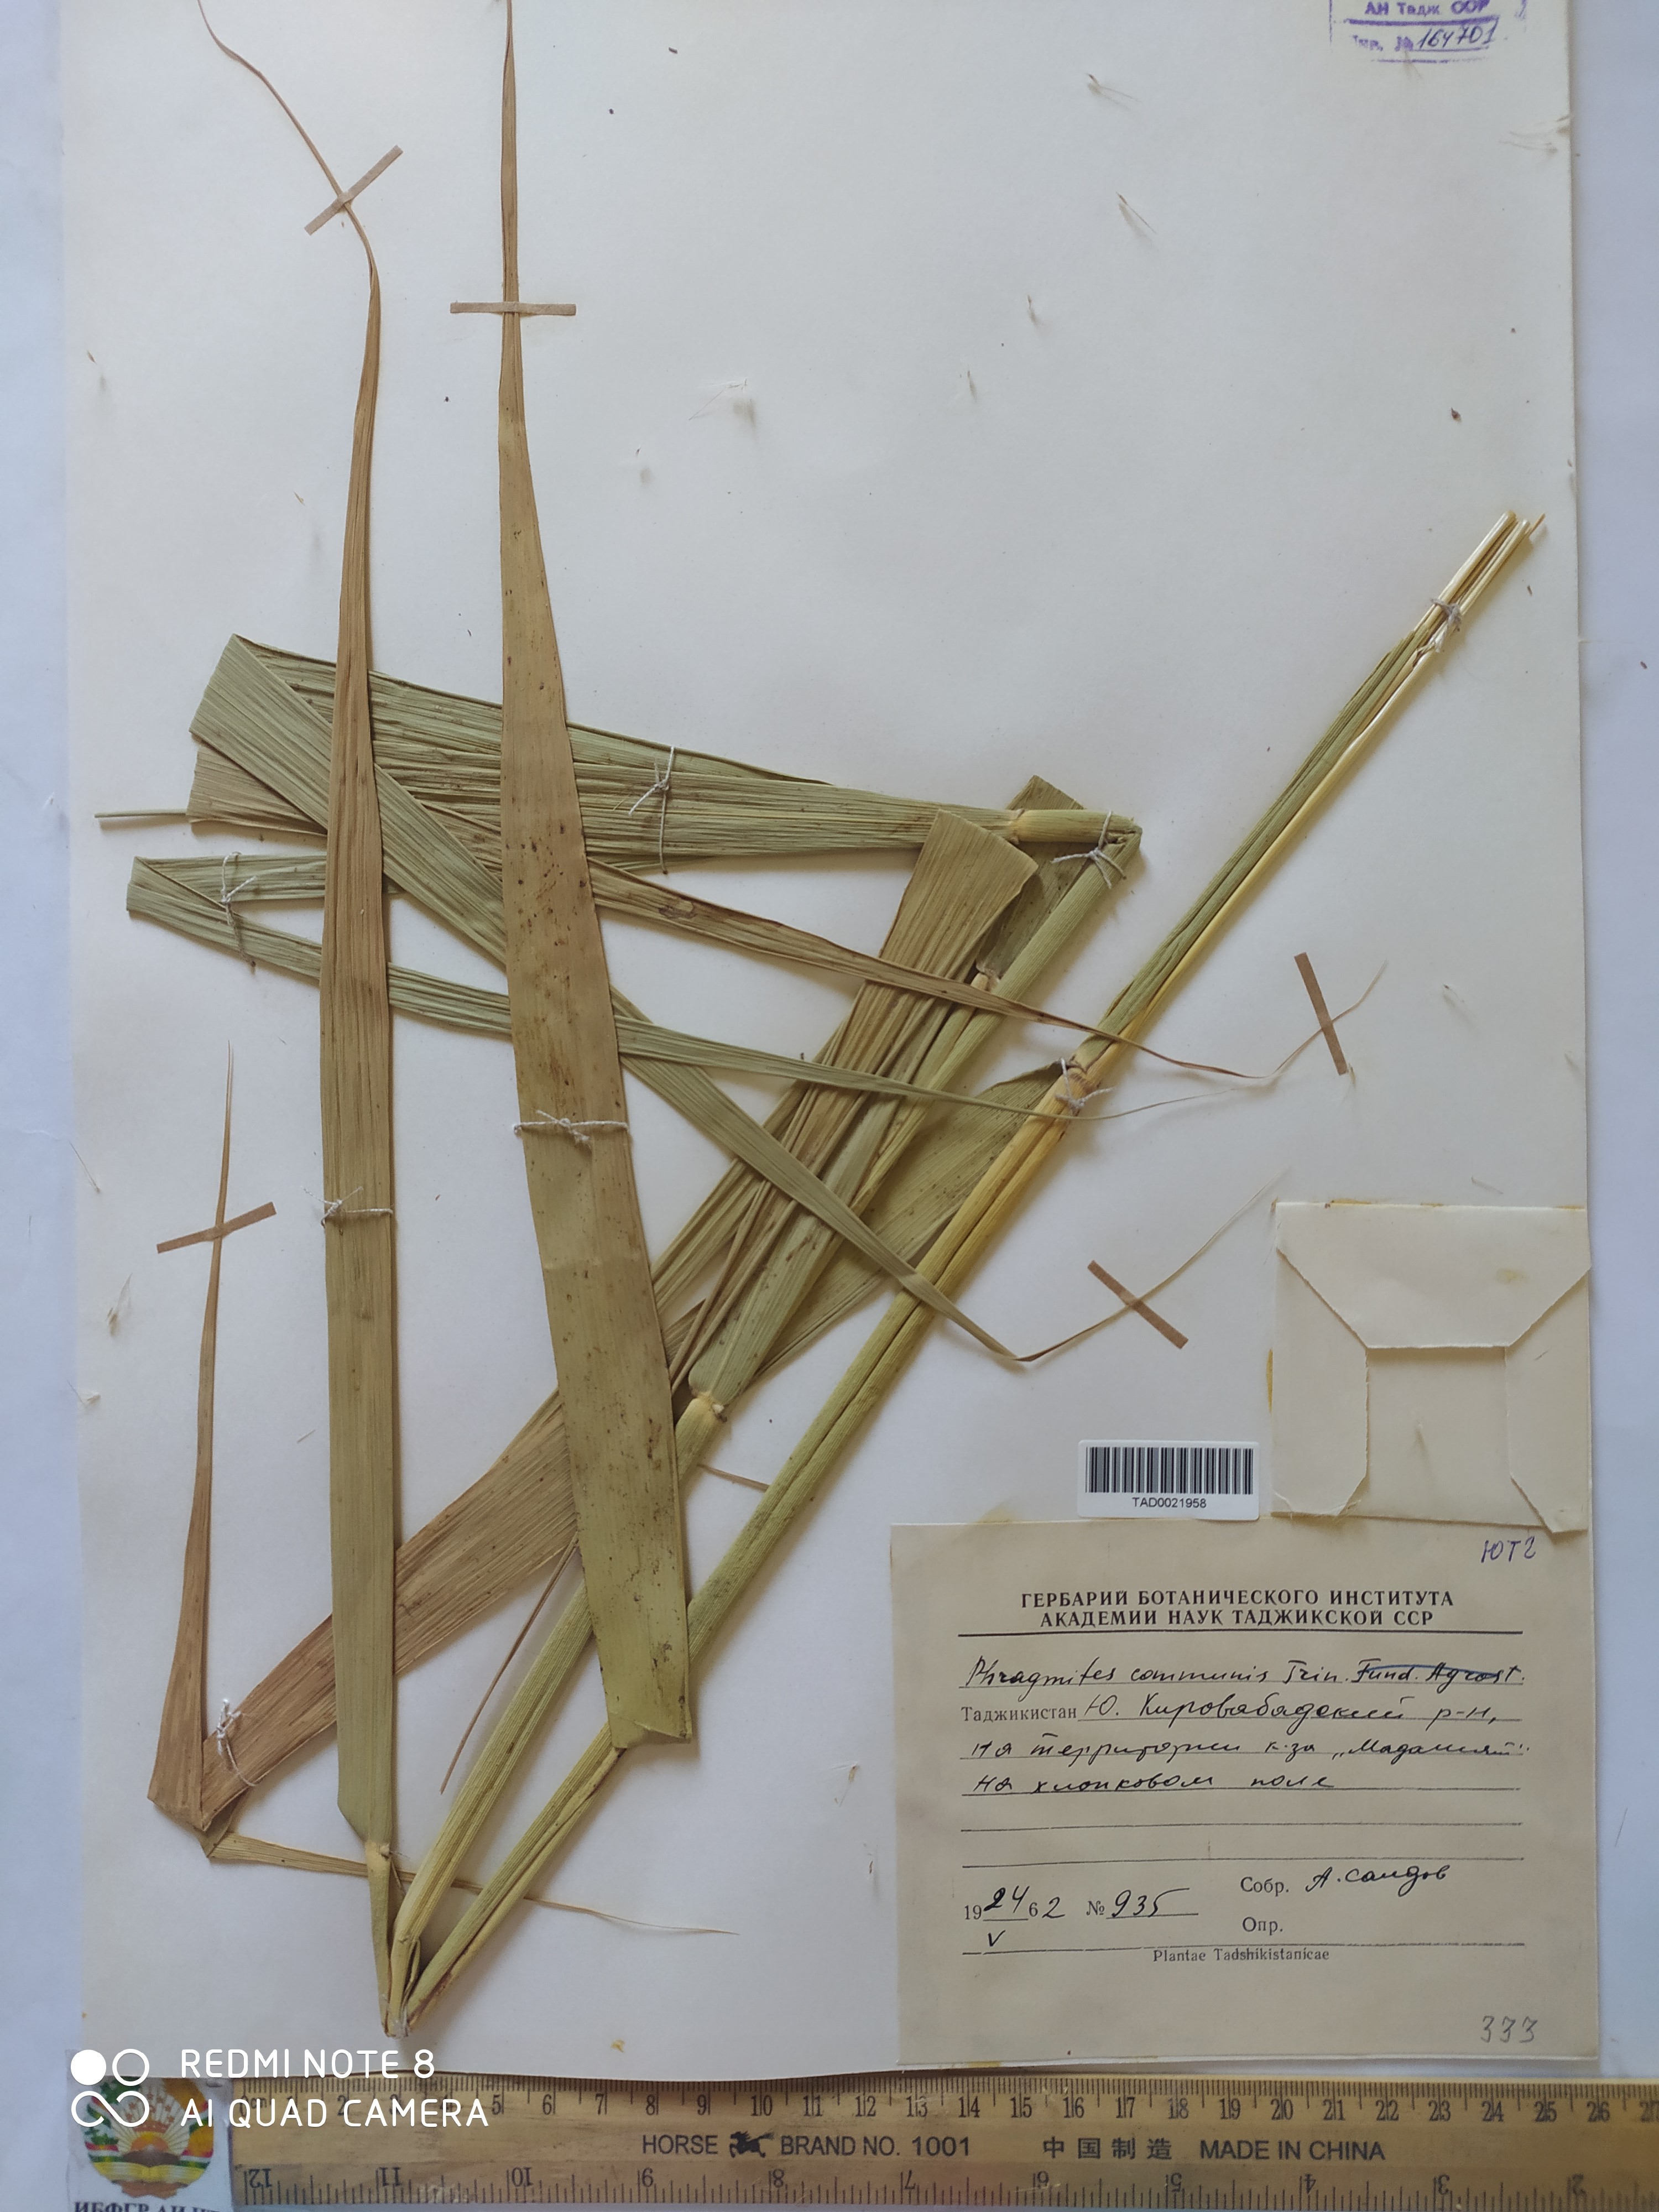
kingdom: Plantae
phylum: Tracheophyta
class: Liliopsida
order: Poales
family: Poaceae
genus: Phragmites
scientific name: Phragmites australis
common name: Common reed
